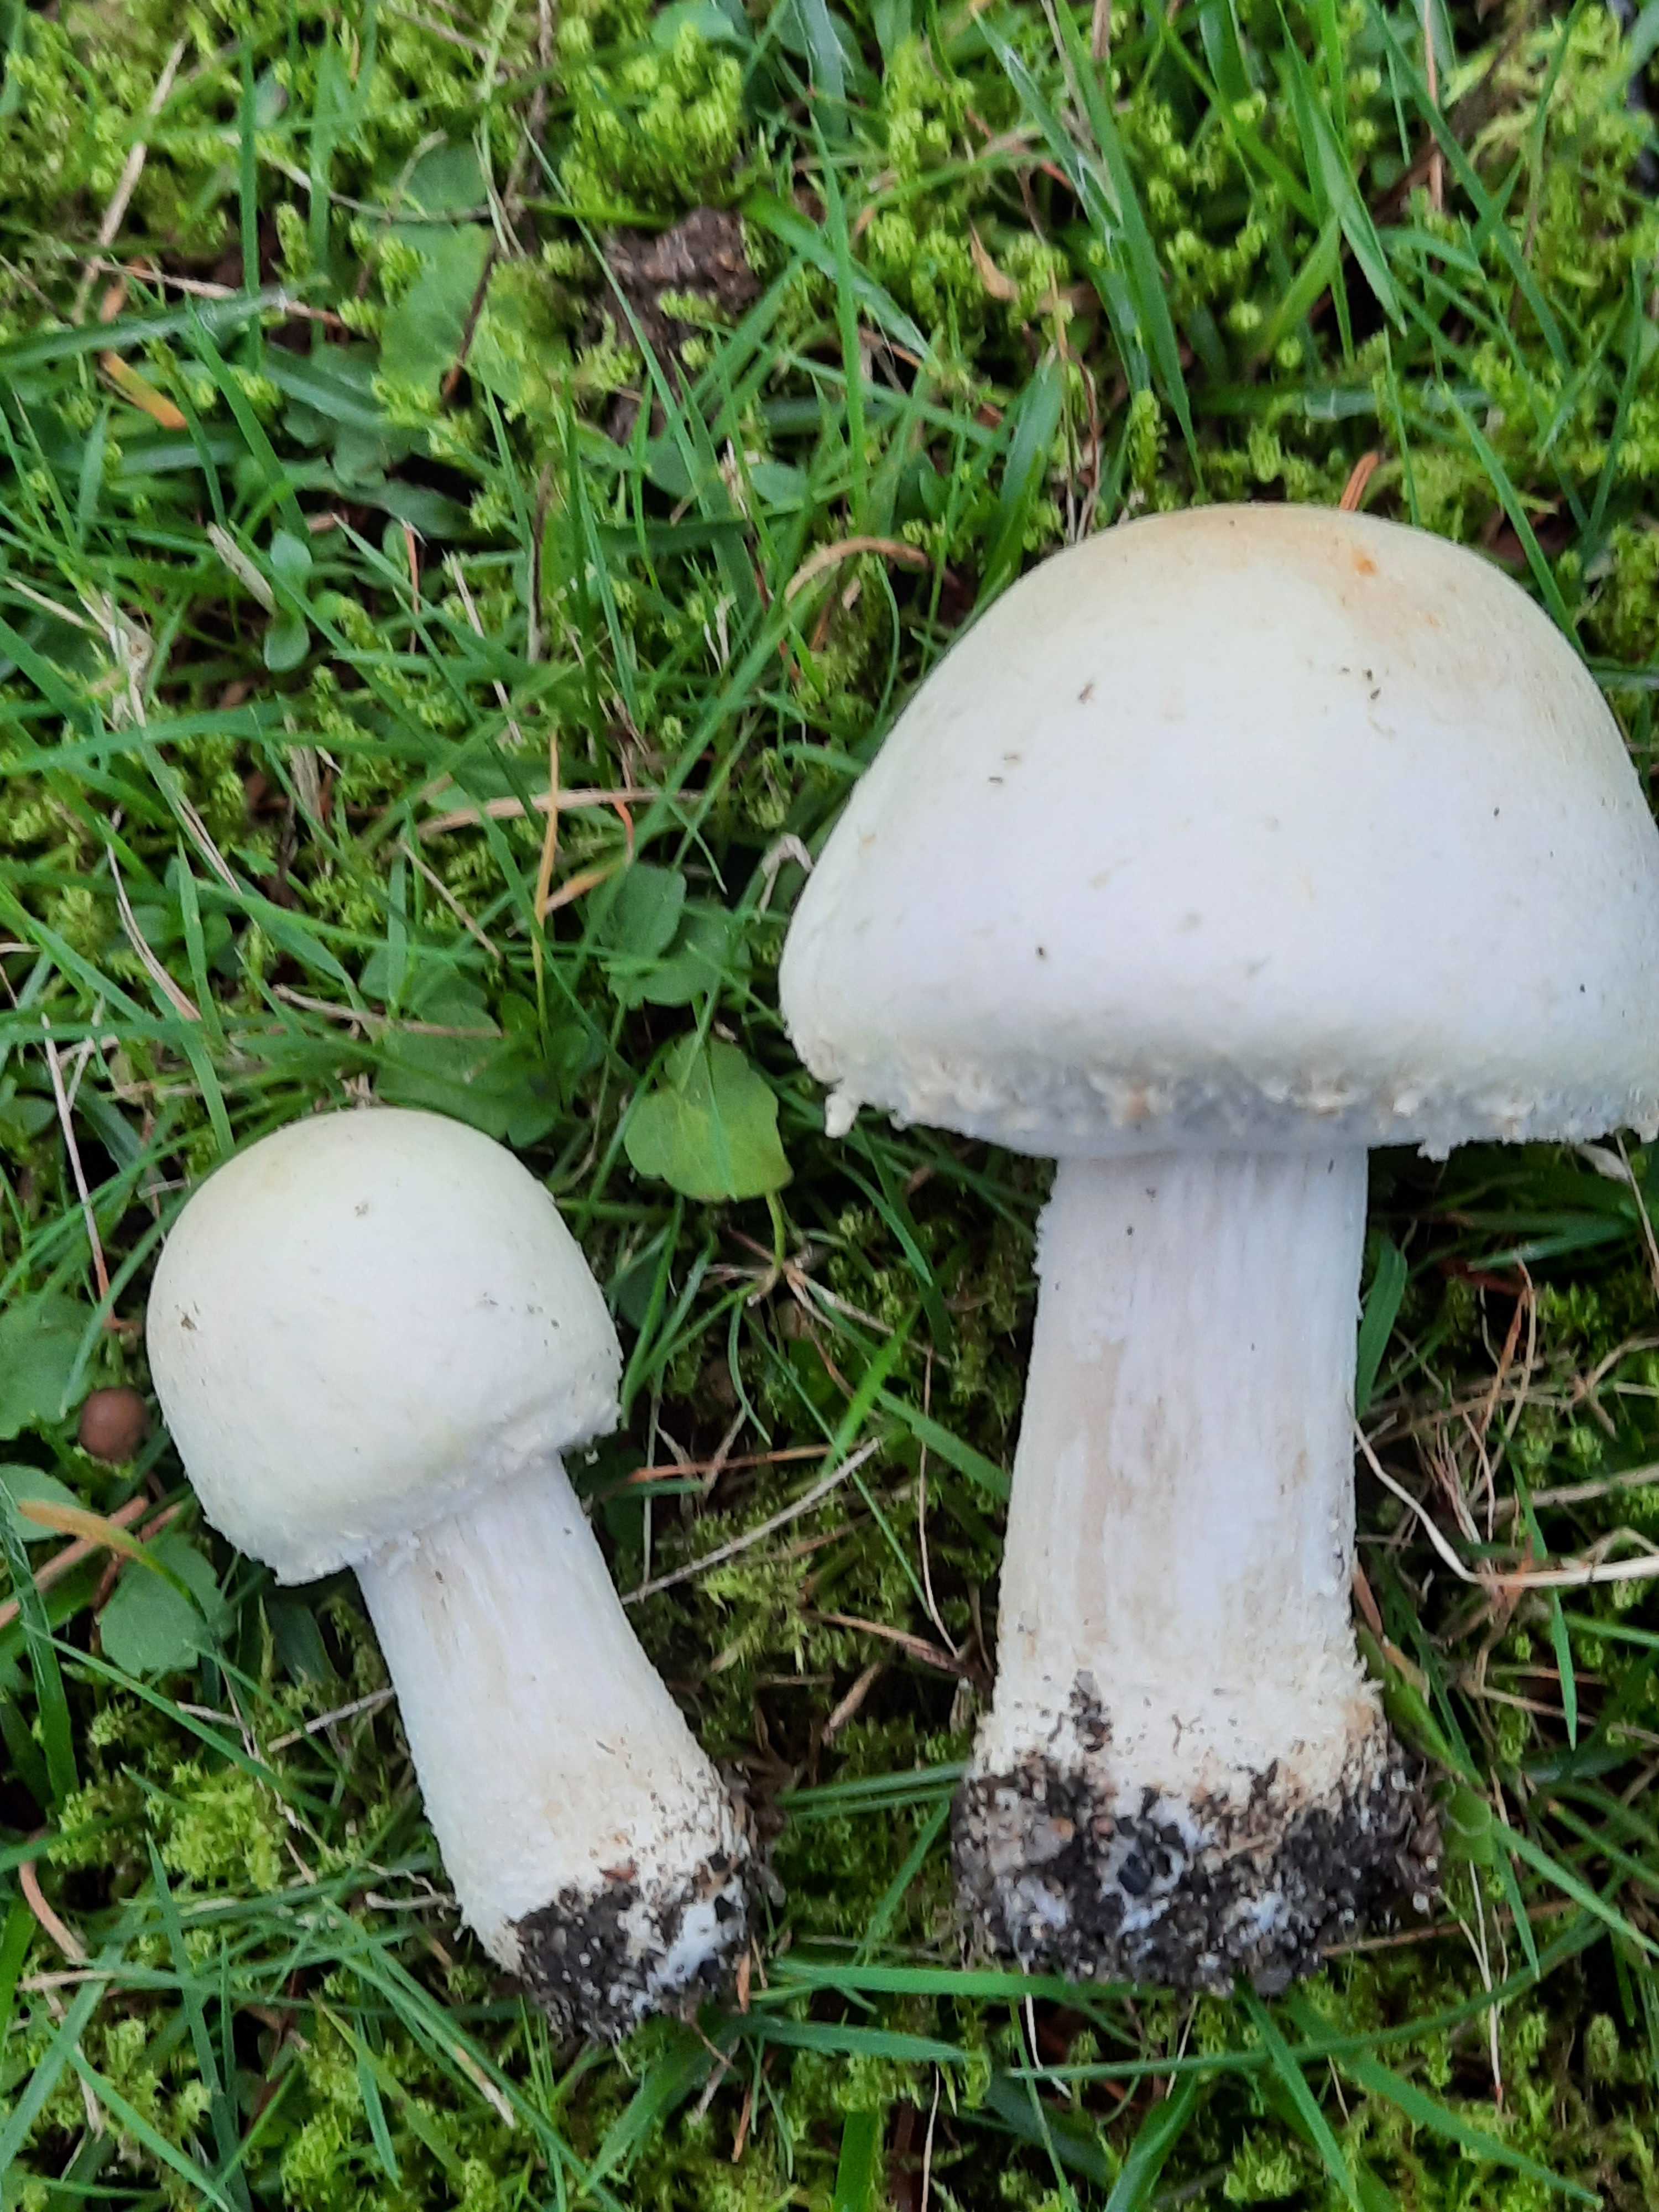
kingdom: Fungi
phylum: Basidiomycota
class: Agaricomycetes
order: Agaricales
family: Agaricaceae
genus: Agaricus
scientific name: Agaricus arvensis
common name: ager-champignon
